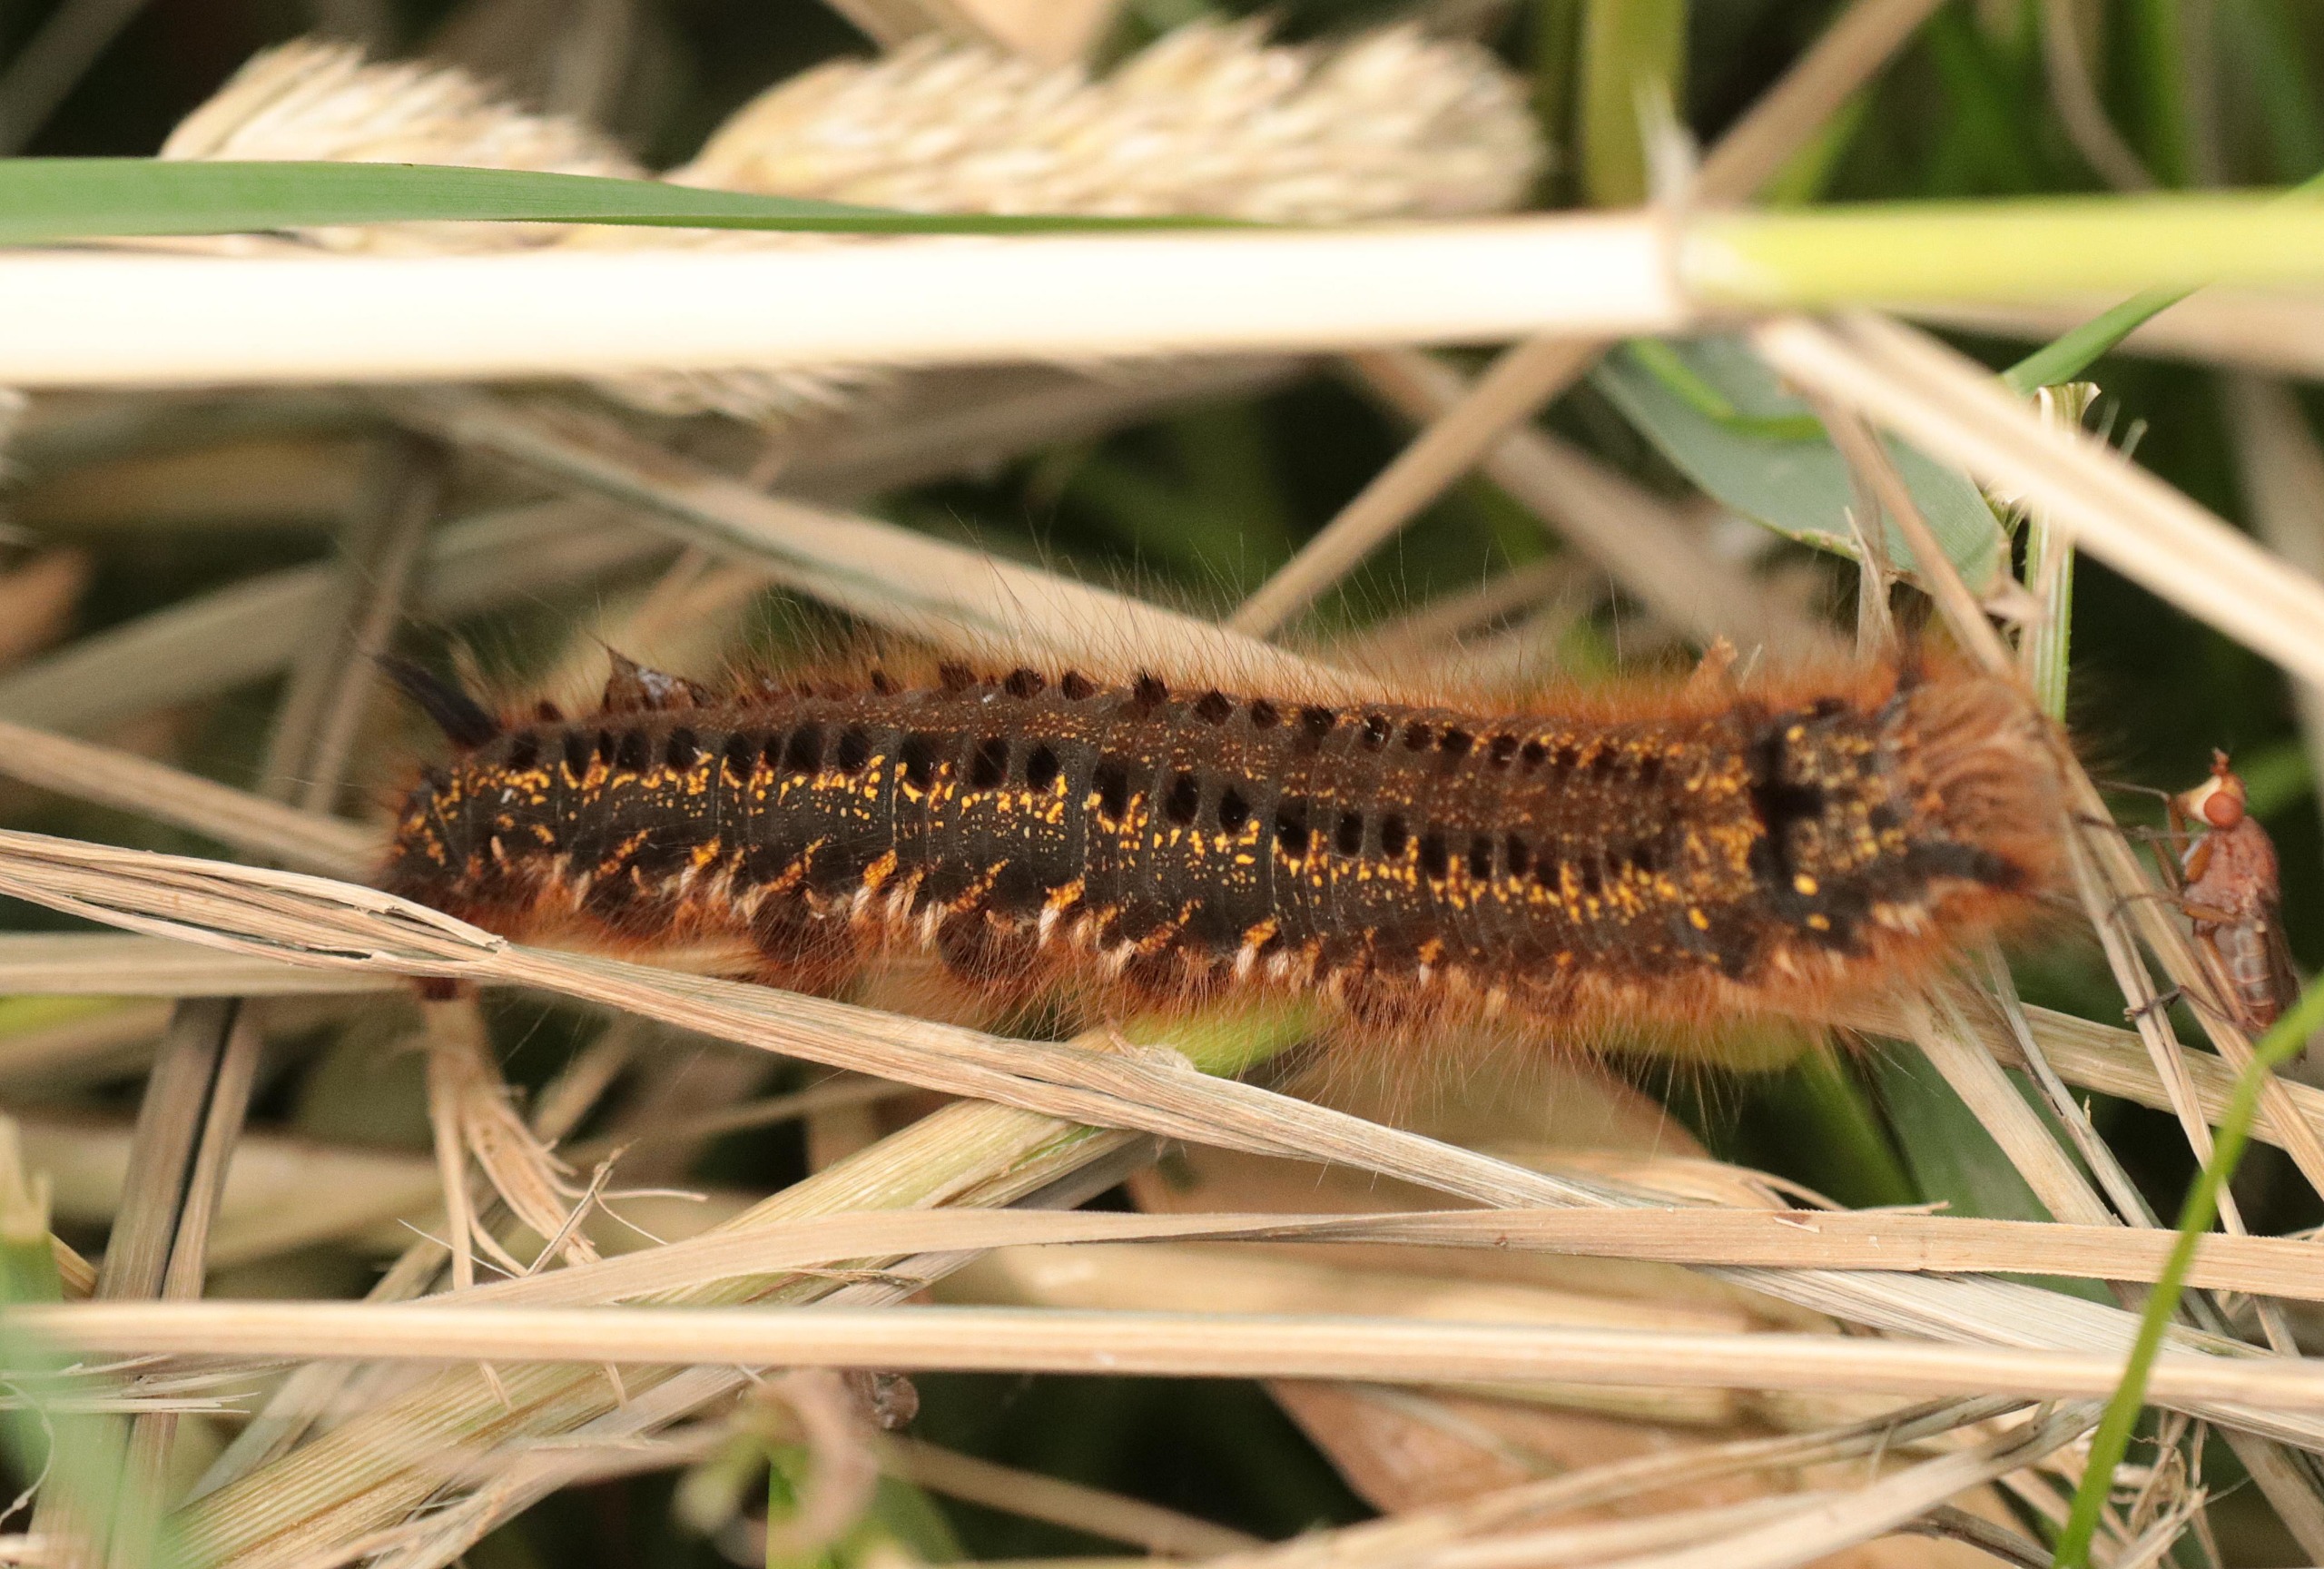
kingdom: Animalia
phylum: Arthropoda
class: Insecta
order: Lepidoptera
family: Lasiocampidae
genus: Euthrix
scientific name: Euthrix potatoria
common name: Græsspinder
